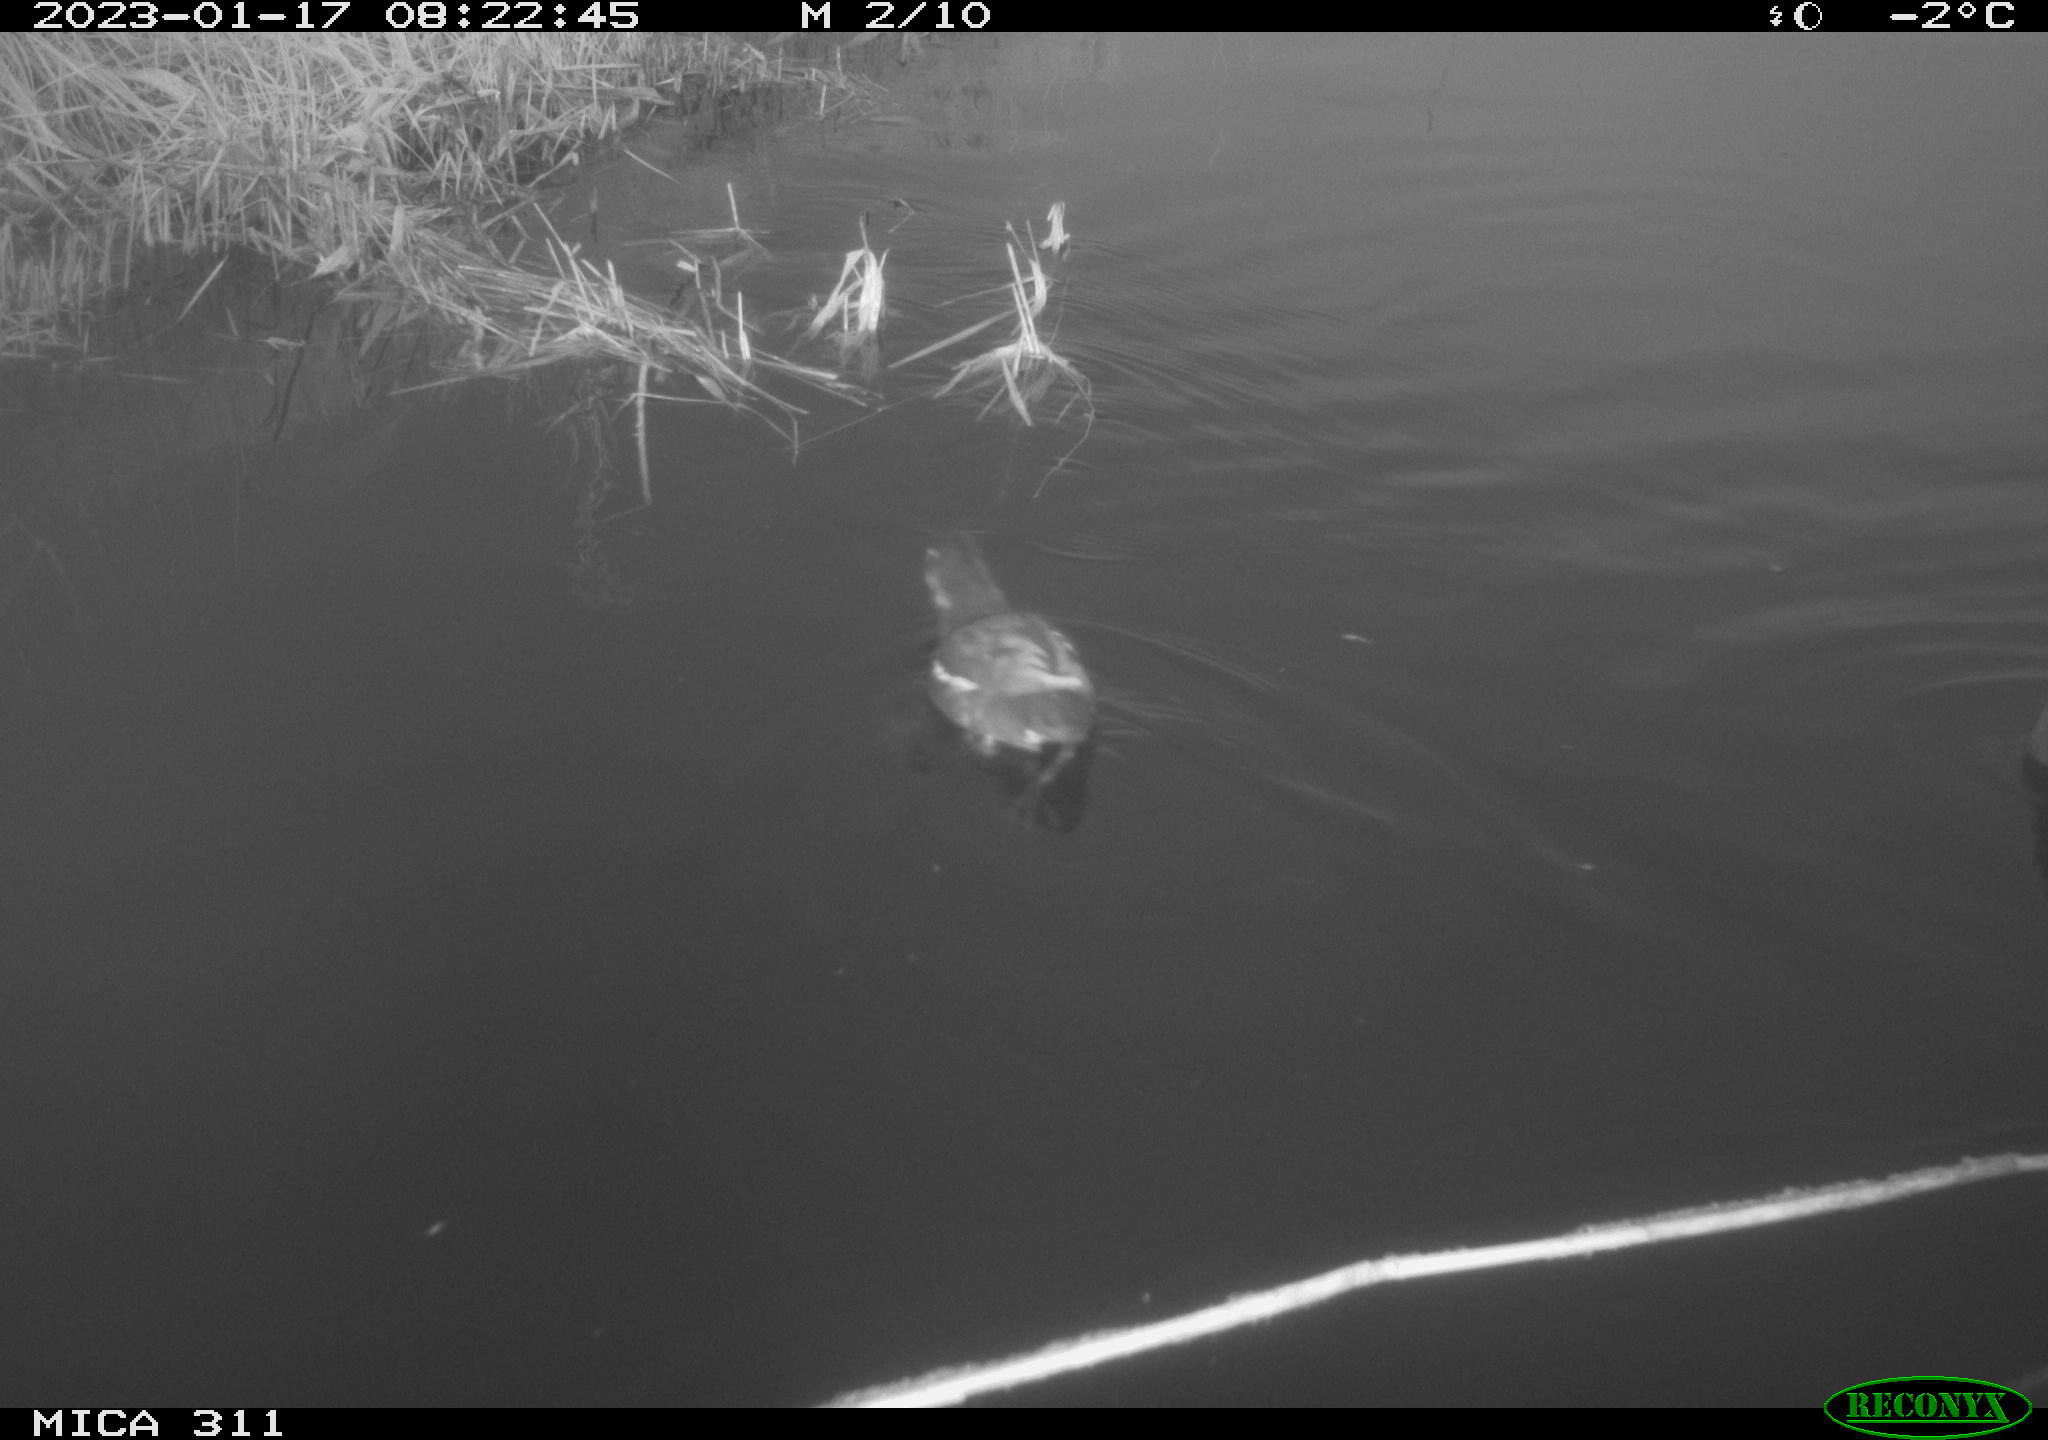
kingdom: Animalia
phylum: Chordata
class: Aves
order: Anseriformes
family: Anatidae
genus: Anas
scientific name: Anas
